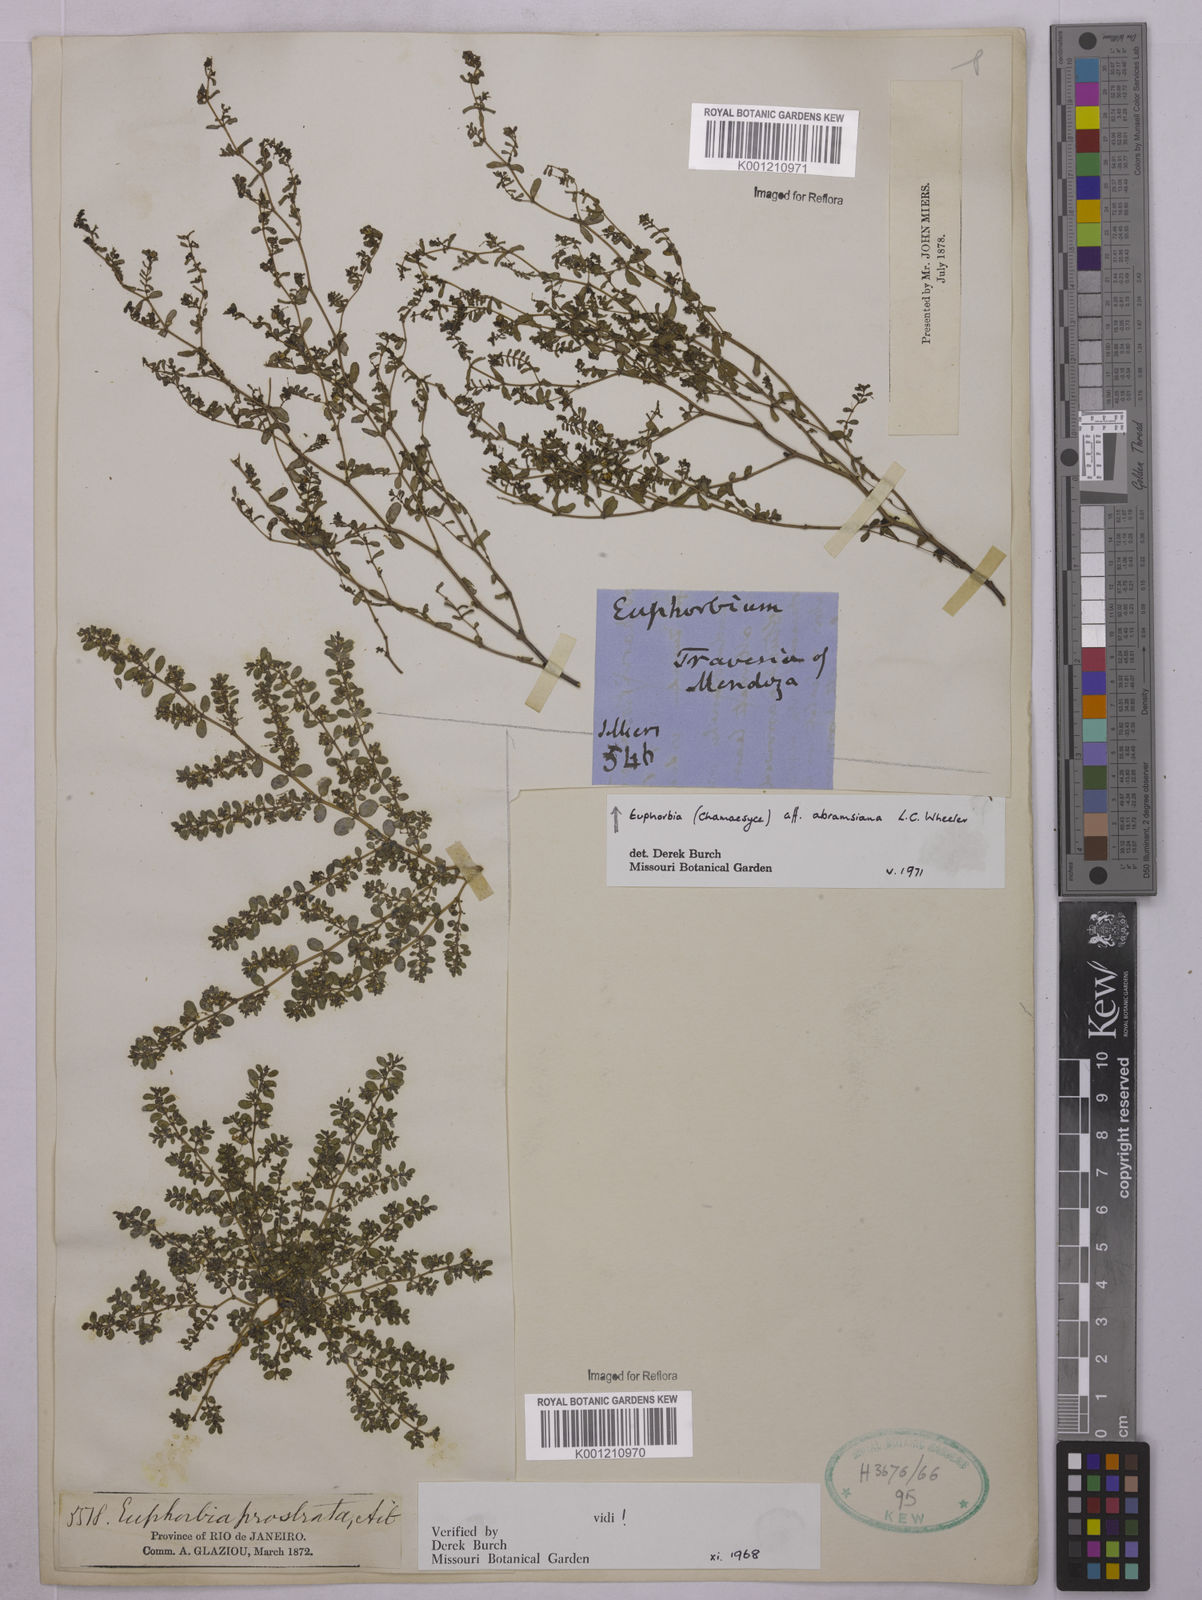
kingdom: Plantae
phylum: Tracheophyta
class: Magnoliopsida
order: Malpighiales
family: Euphorbiaceae
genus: Euphorbia
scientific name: Euphorbia abramsiana
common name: Abram's spurge
